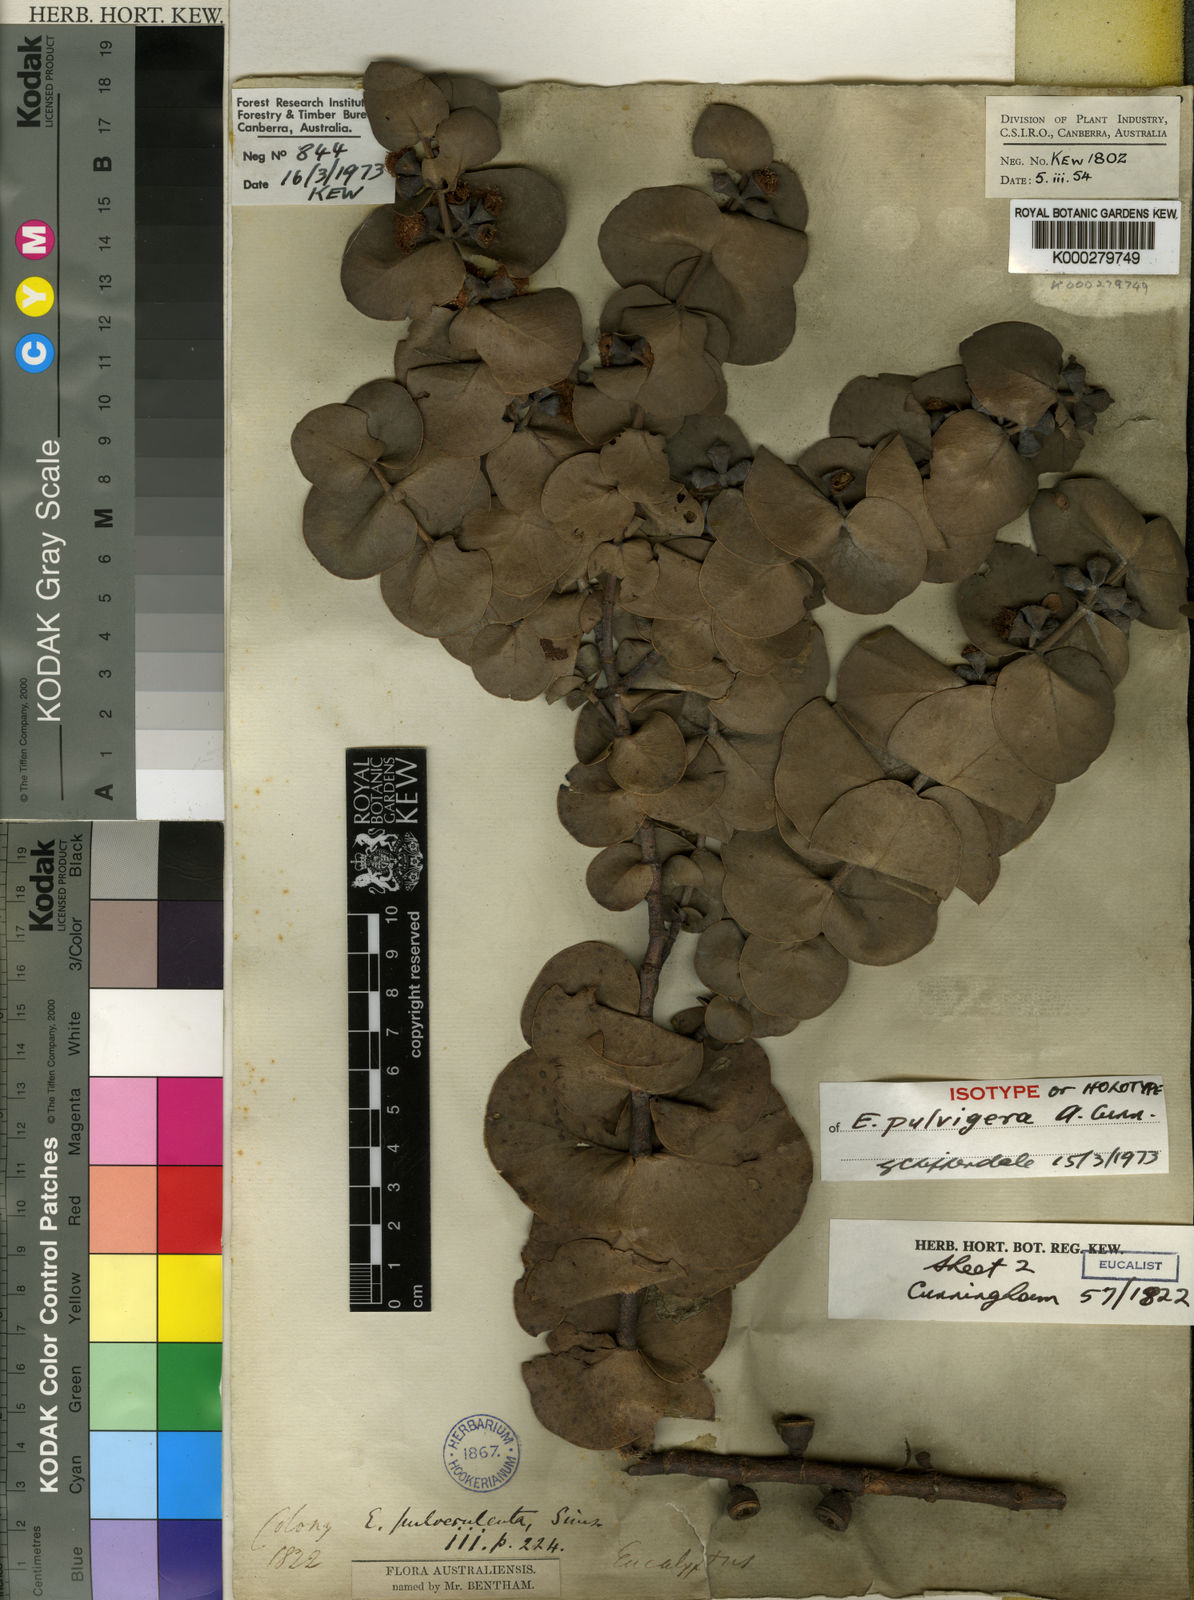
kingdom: Plantae
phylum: Tracheophyta
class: Magnoliopsida
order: Myrtales
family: Myrtaceae
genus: Eucalyptus
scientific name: Eucalyptus pulverulenta
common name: Silverleaf mountain gum
